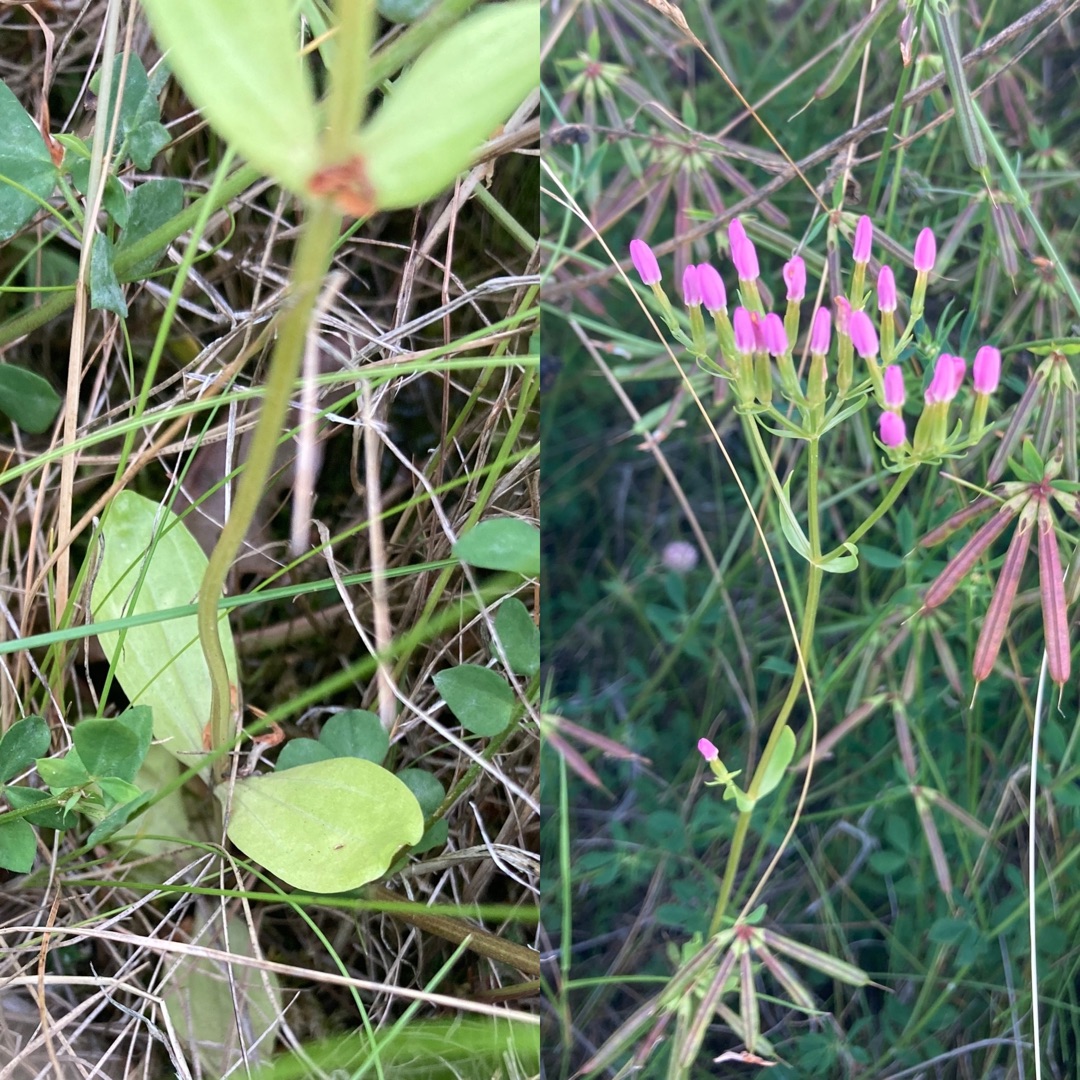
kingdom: Plantae
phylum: Tracheophyta
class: Magnoliopsida
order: Gentianales
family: Gentianaceae
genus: Centaurium
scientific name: Centaurium erythraea
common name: Mark-tusindgylden
